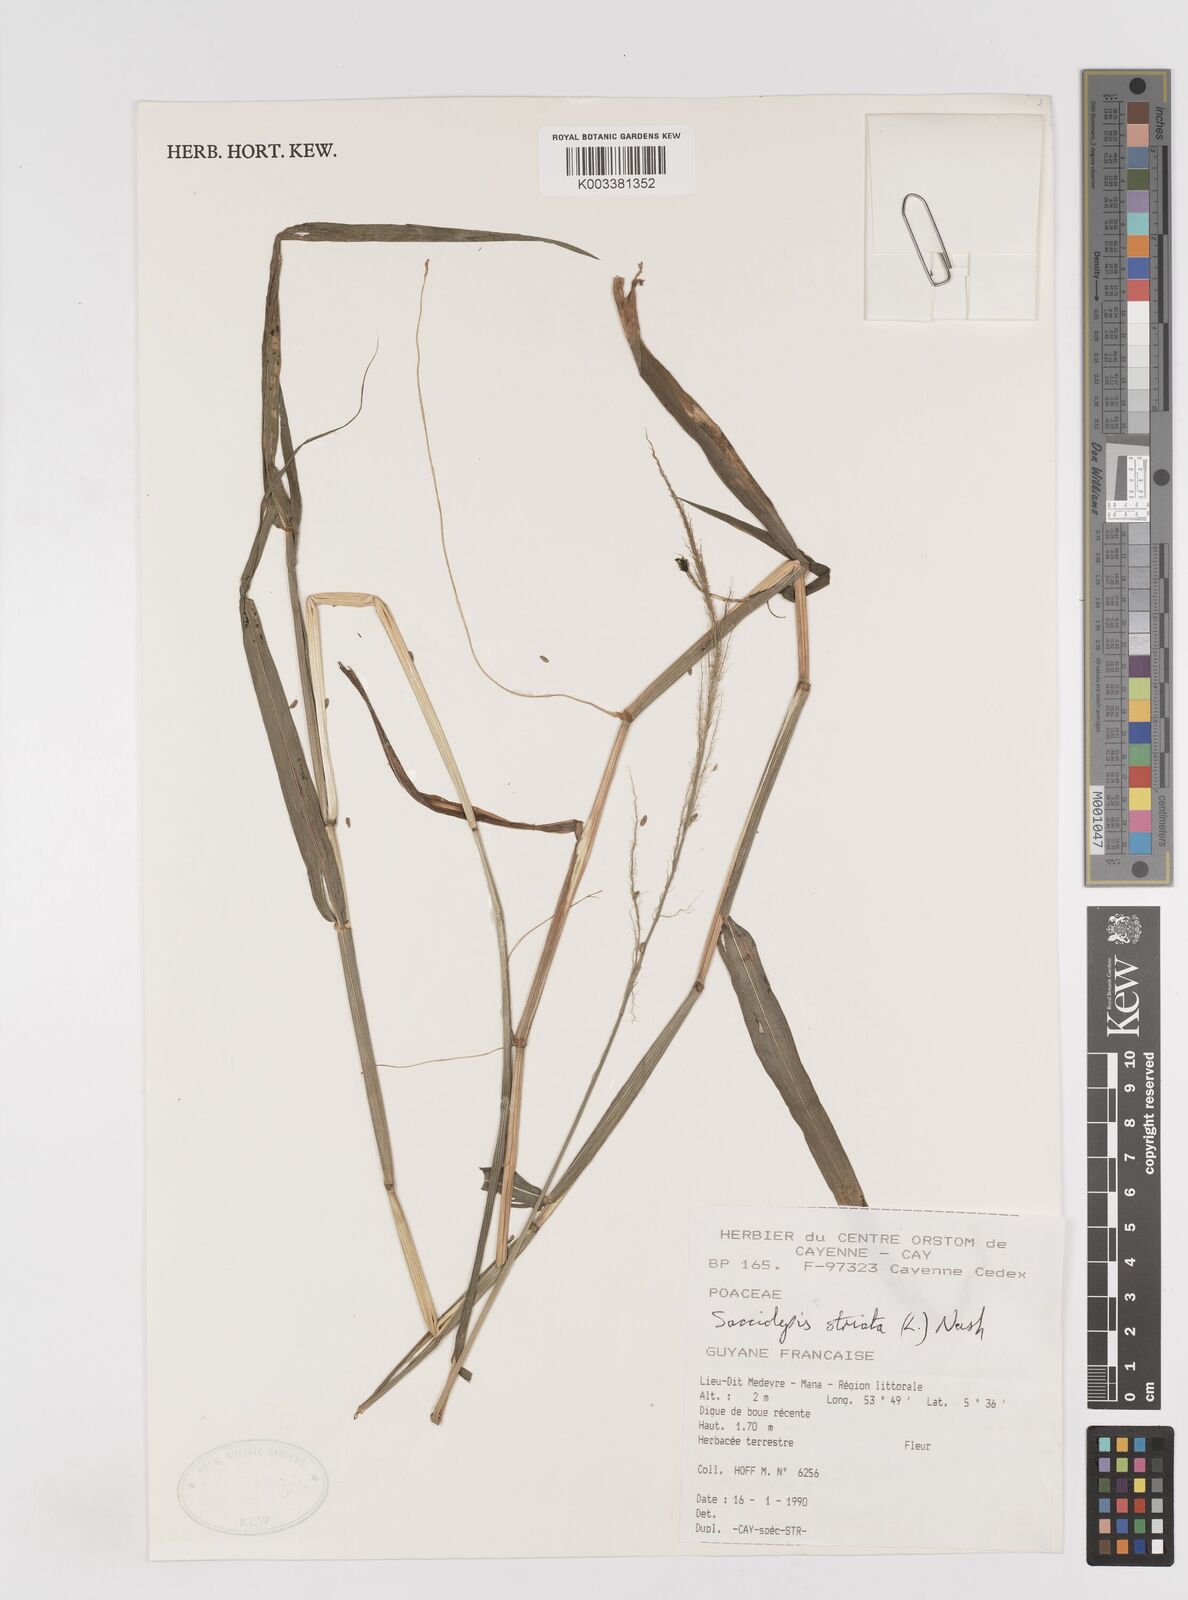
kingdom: Plantae
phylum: Tracheophyta
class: Liliopsida
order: Poales
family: Poaceae
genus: Sacciolepis
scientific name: Sacciolepis striata
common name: American cupscale
